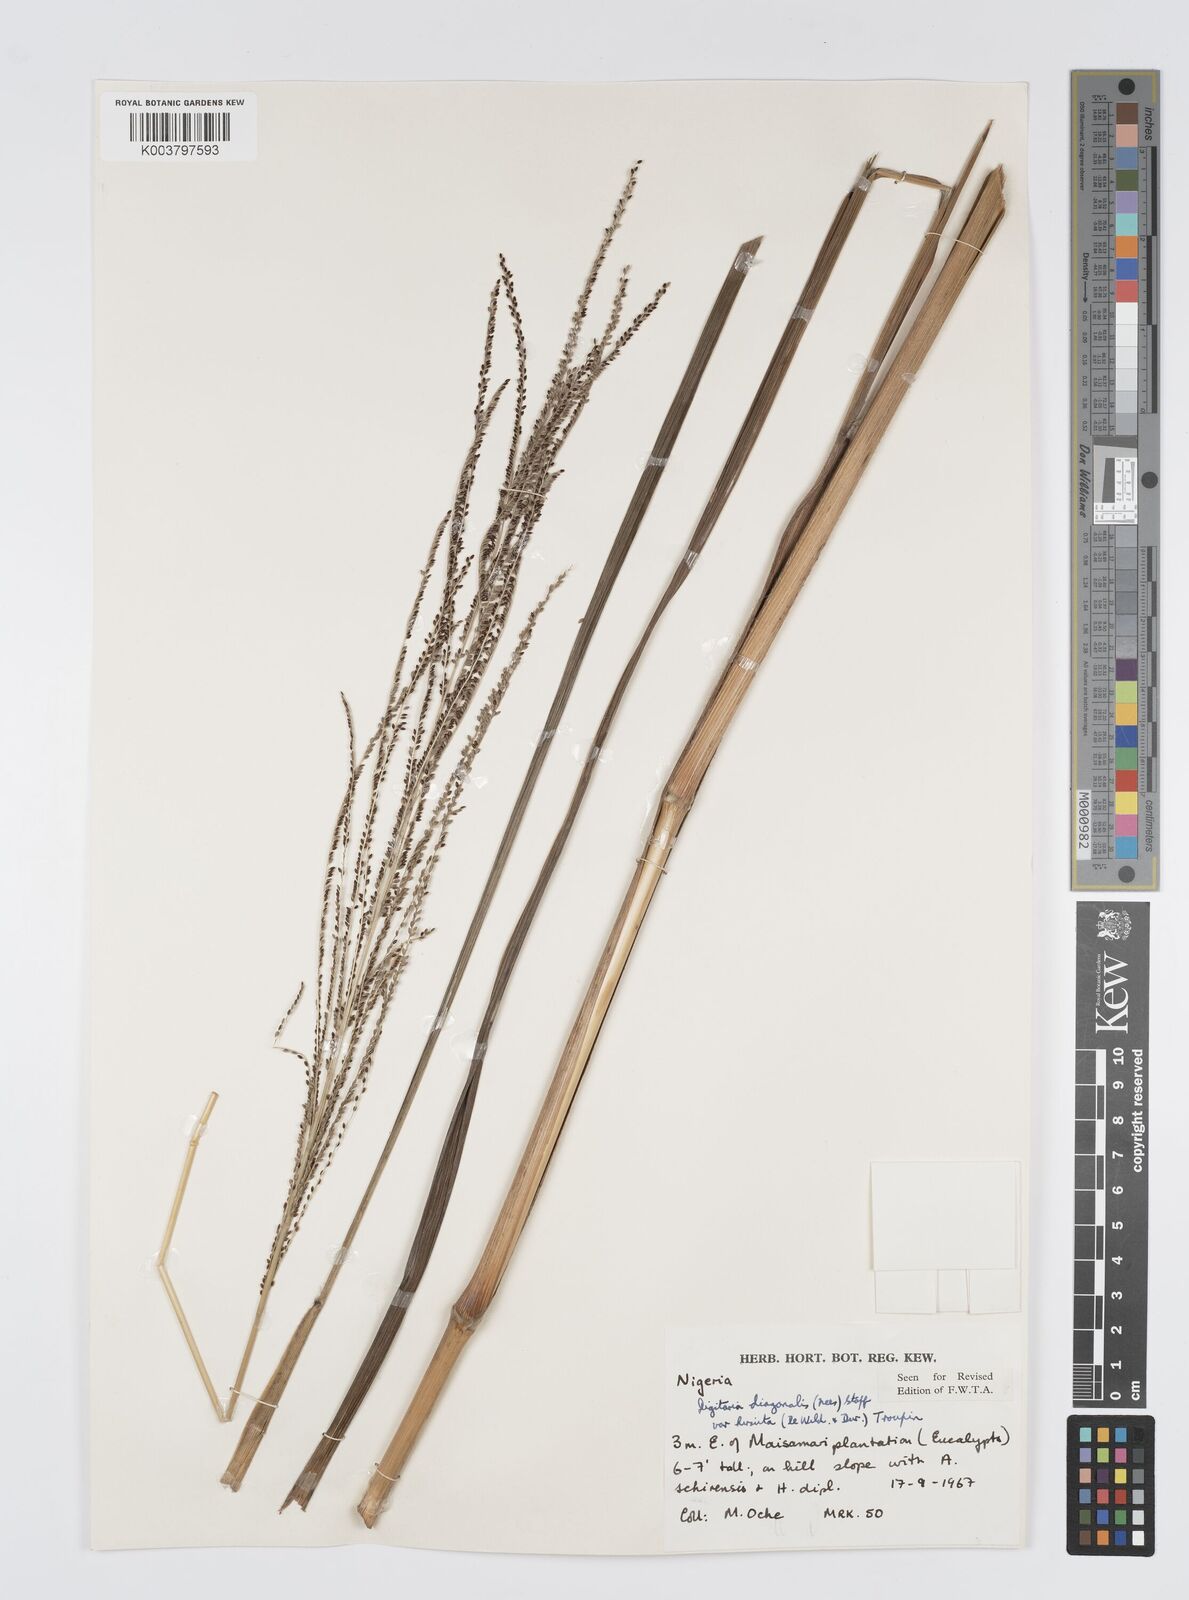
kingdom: Plantae
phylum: Tracheophyta
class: Liliopsida
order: Poales
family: Poaceae
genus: Digitaria
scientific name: Digitaria diagonalis
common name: Brown-seed finger grass
